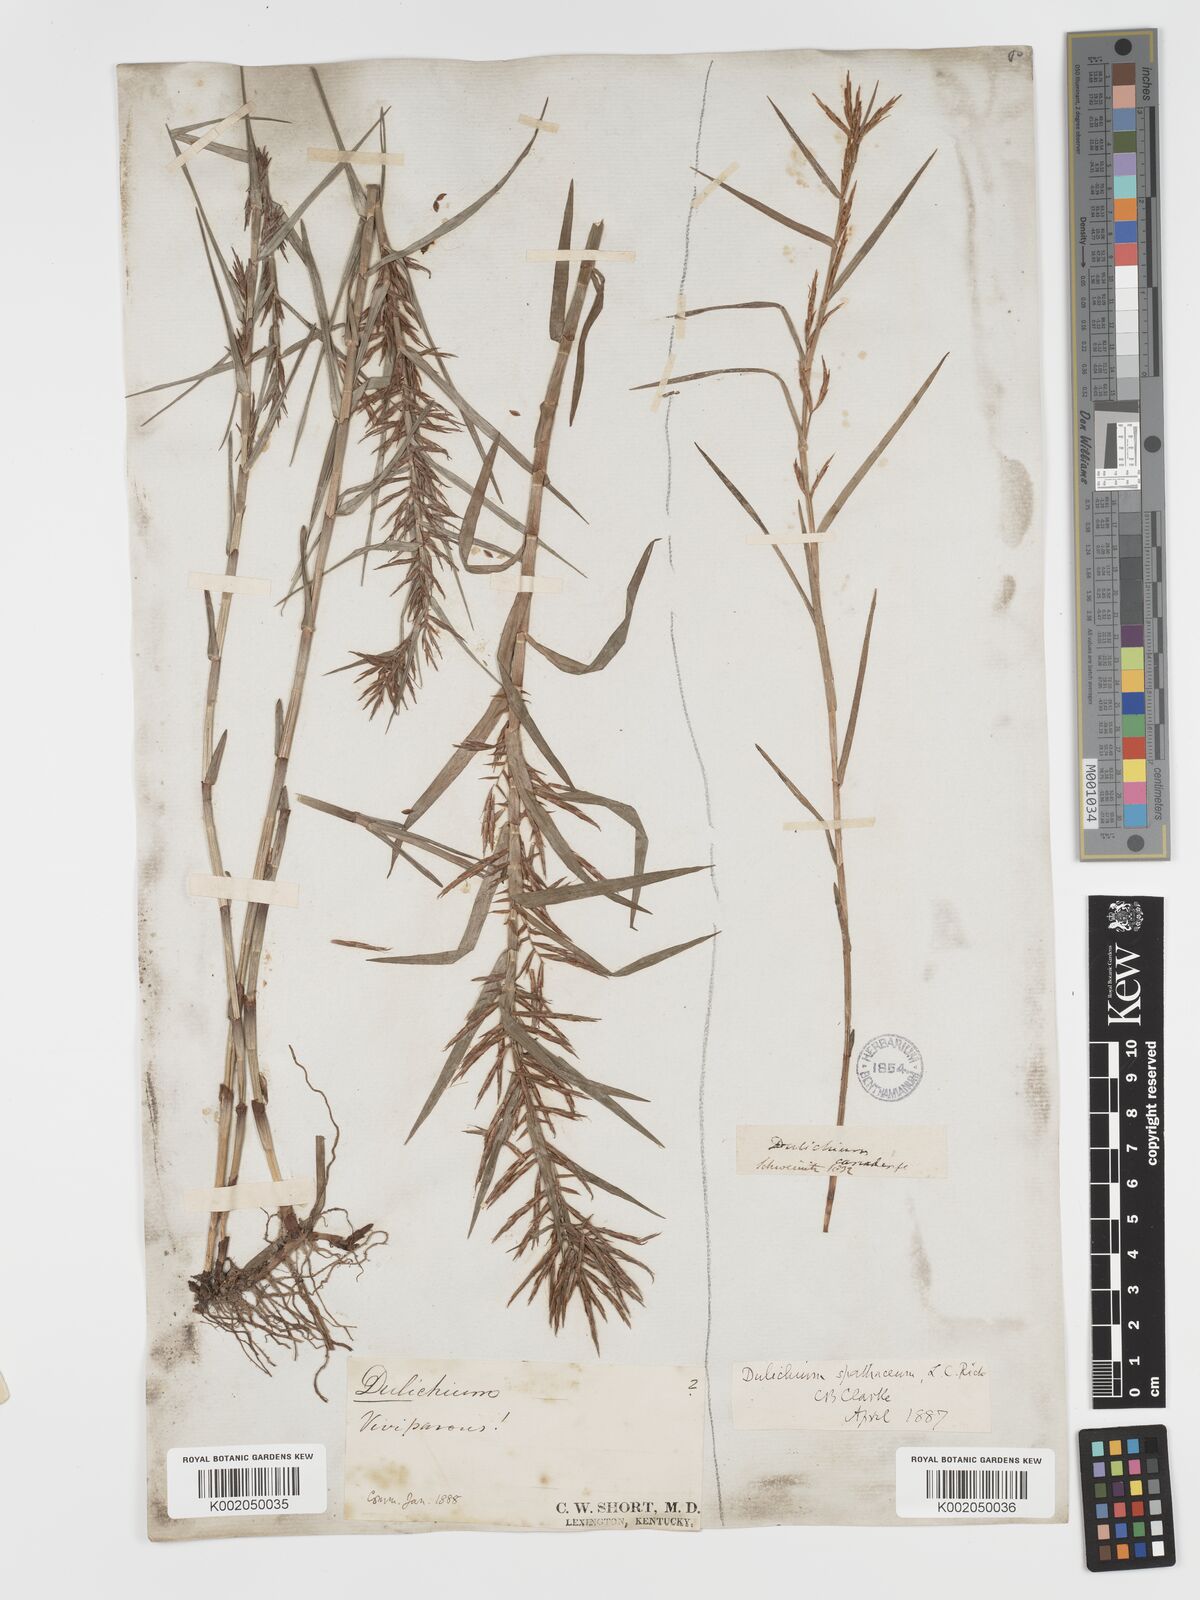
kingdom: Plantae
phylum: Tracheophyta
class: Liliopsida
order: Poales
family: Cyperaceae
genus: Dulichium
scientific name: Dulichium arundinaceum
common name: Three-way sedge
